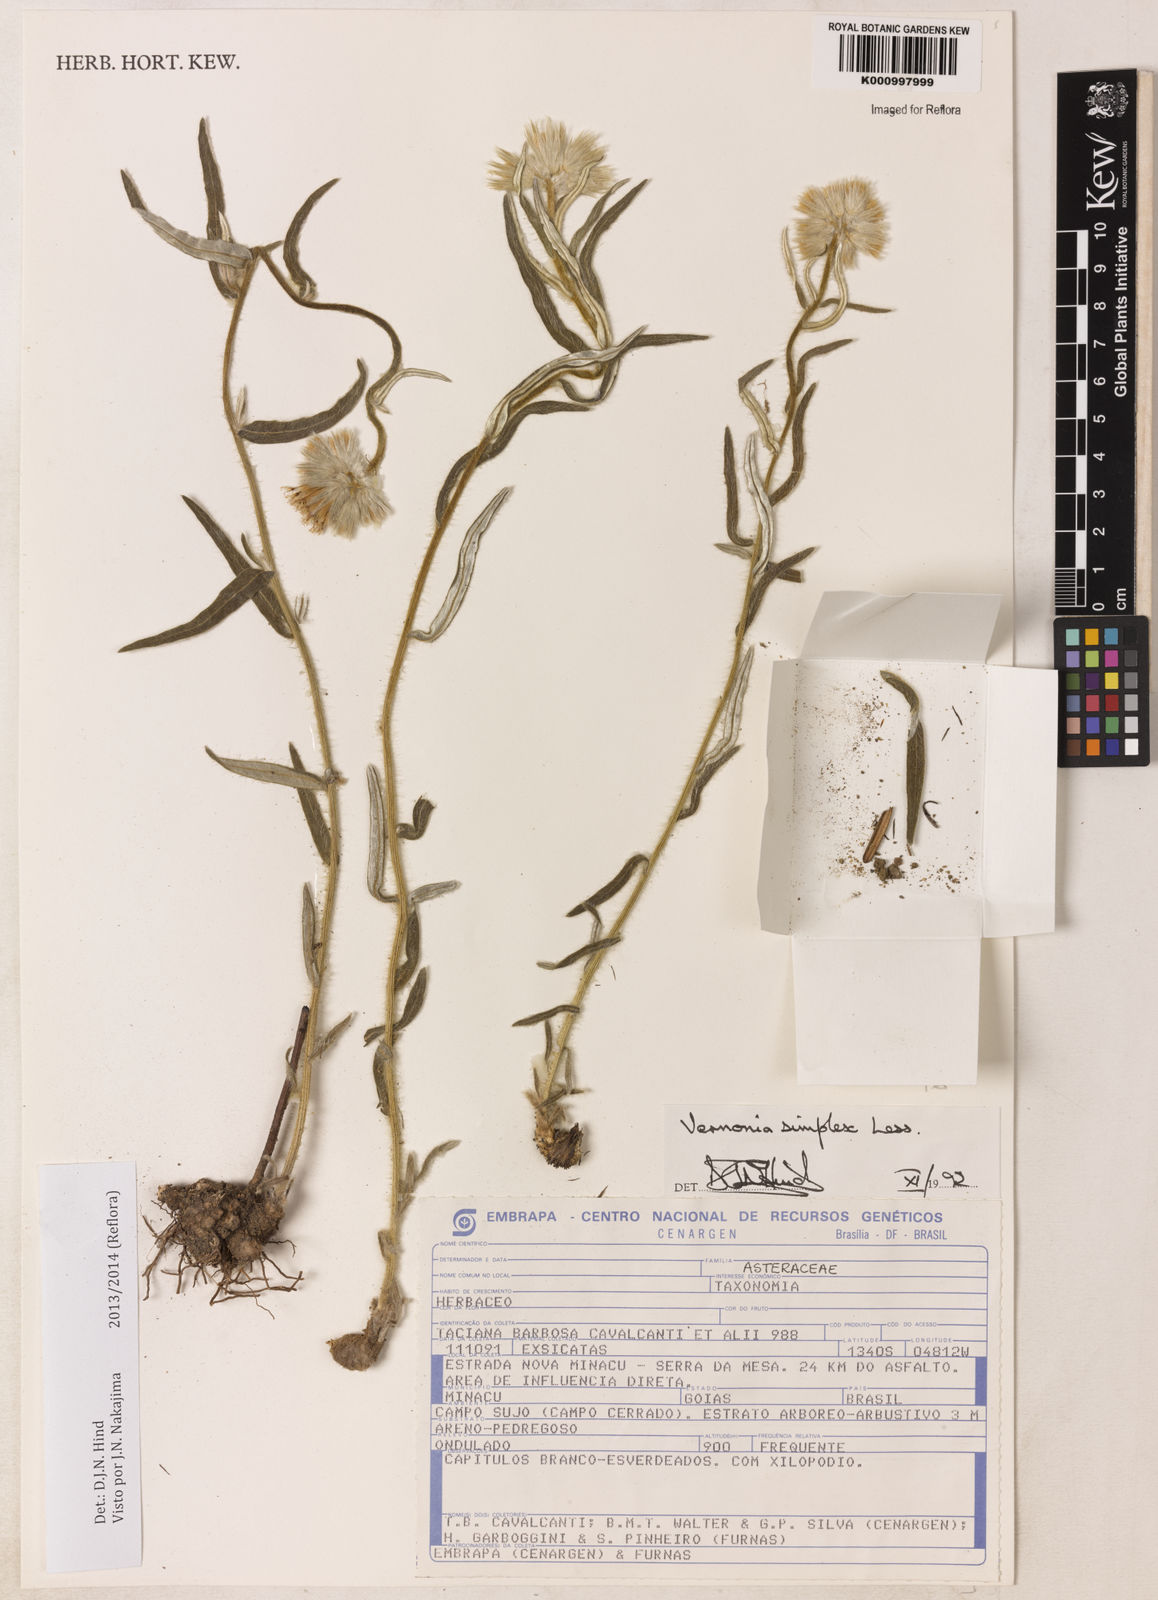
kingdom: Plantae
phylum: Tracheophyta
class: Magnoliopsida
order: Asterales
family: Asteraceae
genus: Chrysolaena
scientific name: Chrysolaena simplex
